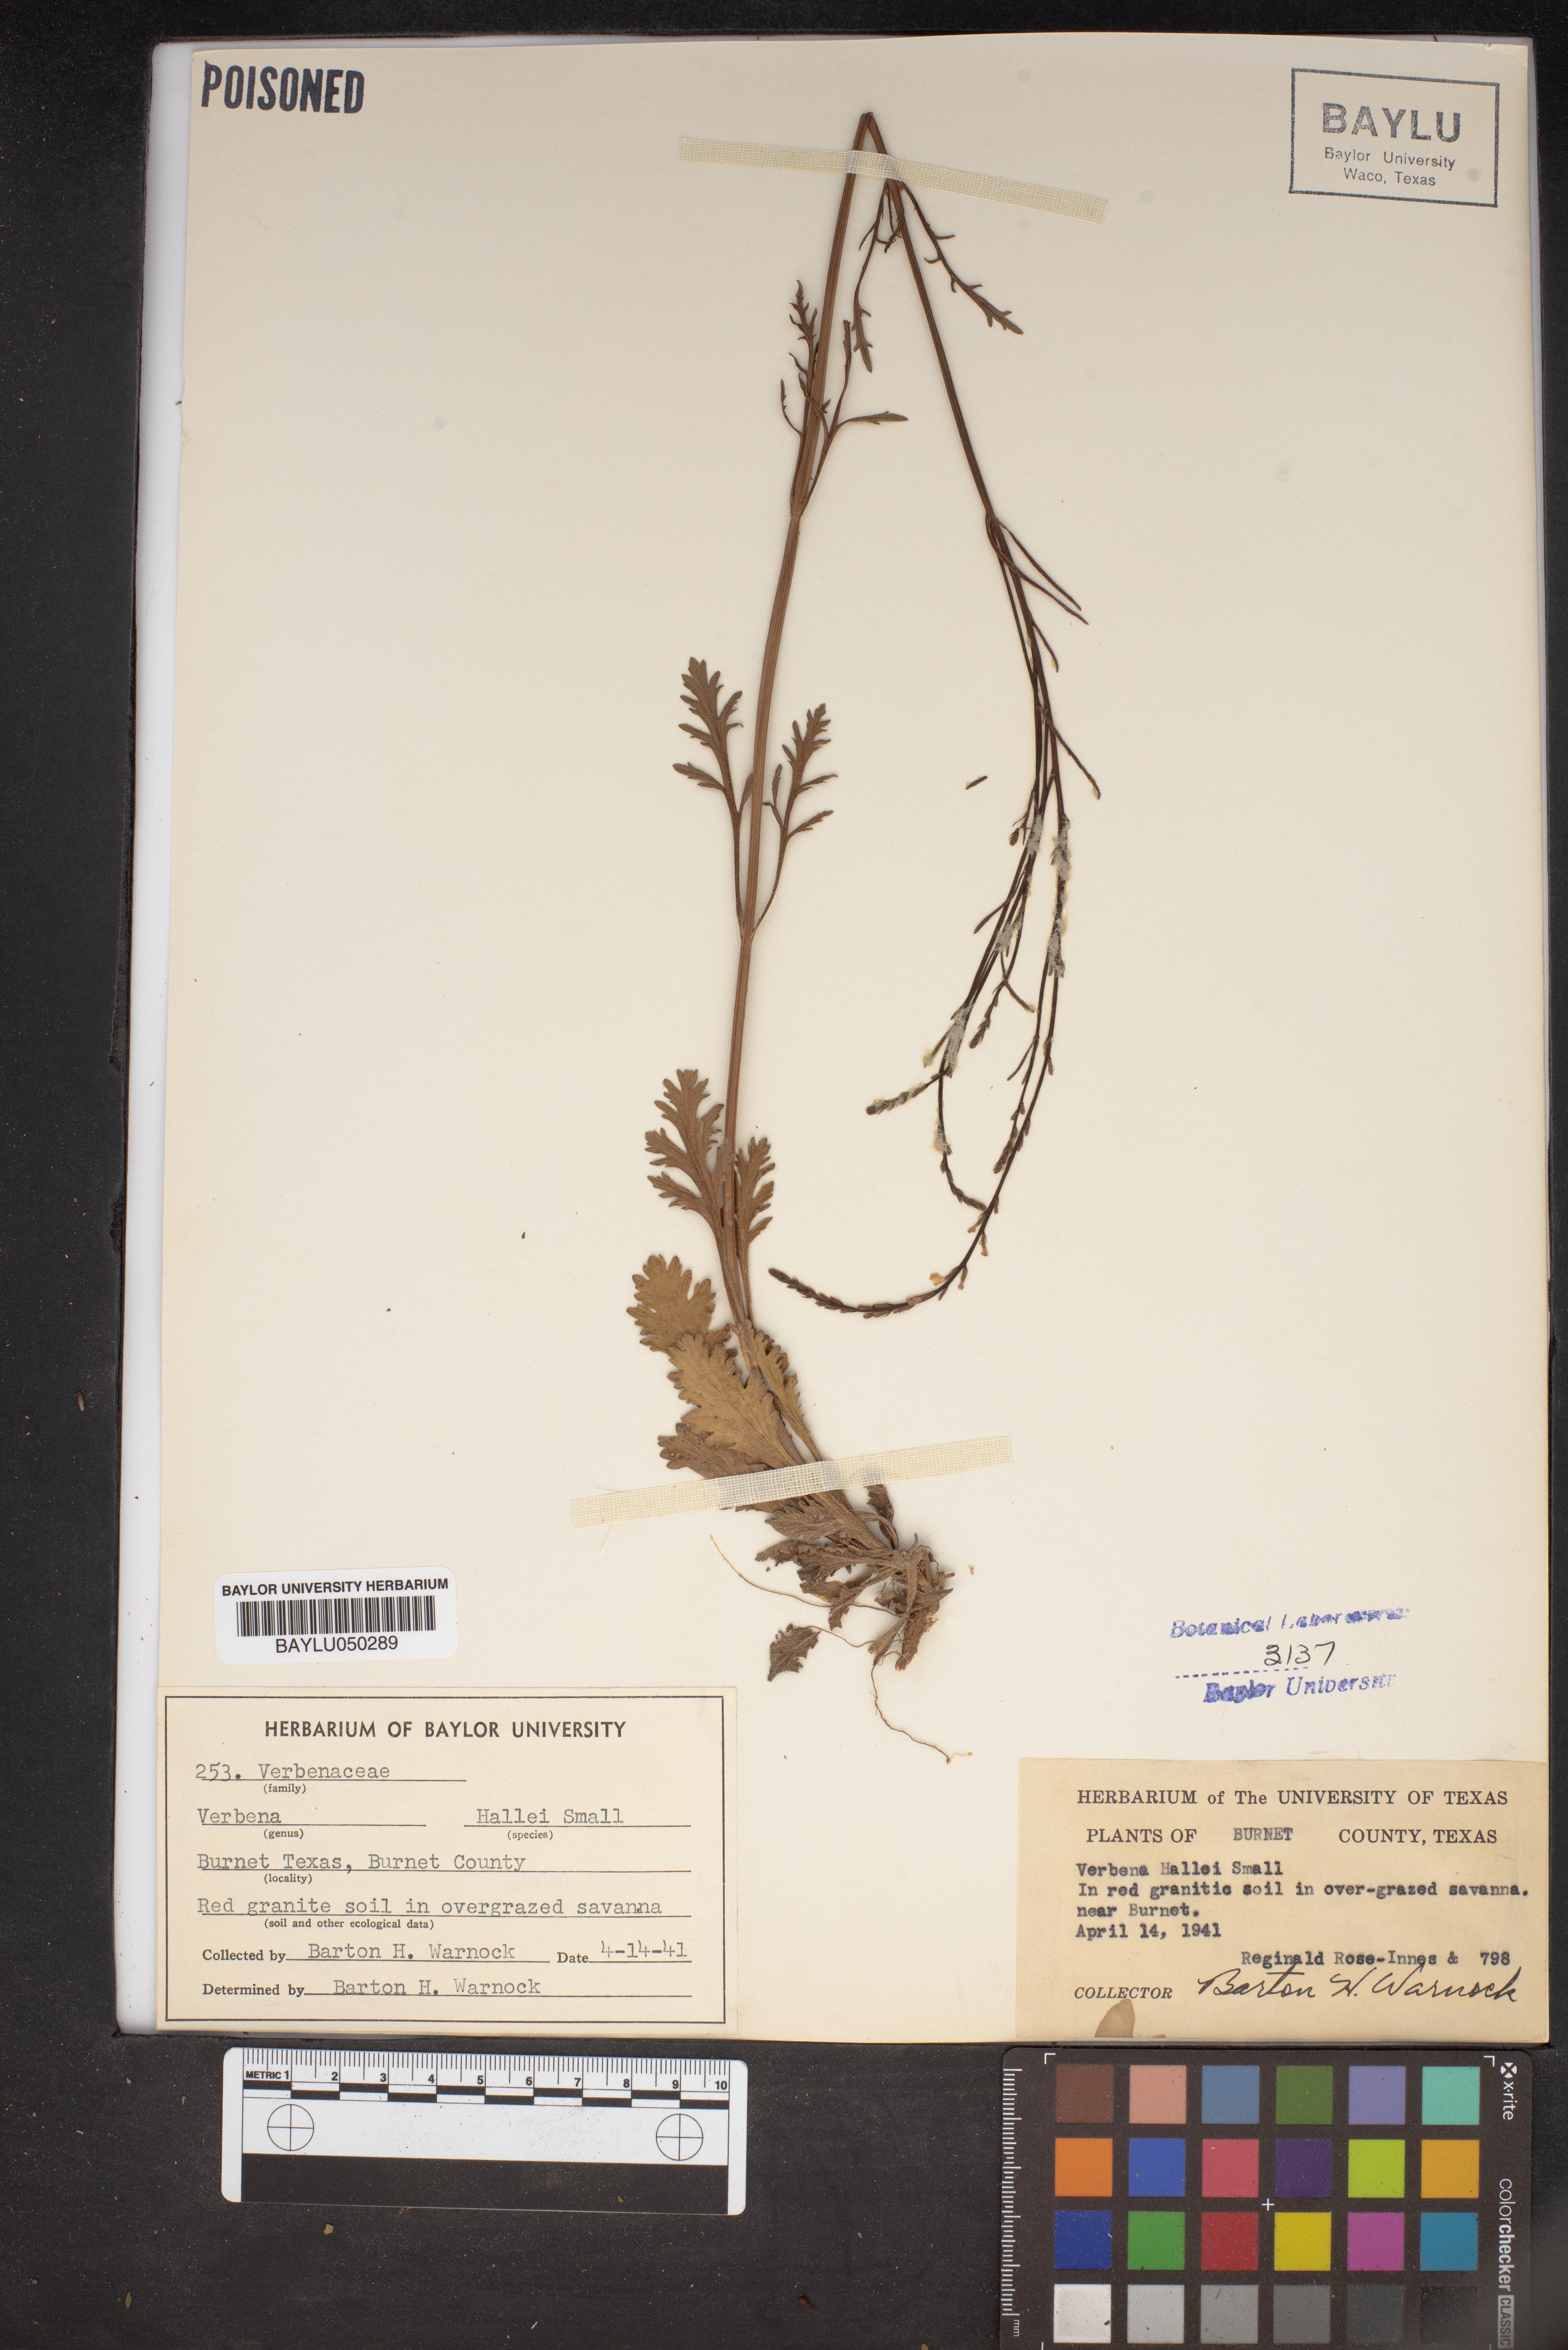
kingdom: Plantae
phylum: Tracheophyta
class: Magnoliopsida
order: Lamiales
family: Verbenaceae
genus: Verbena
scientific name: Verbena halei
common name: Texas vervain
